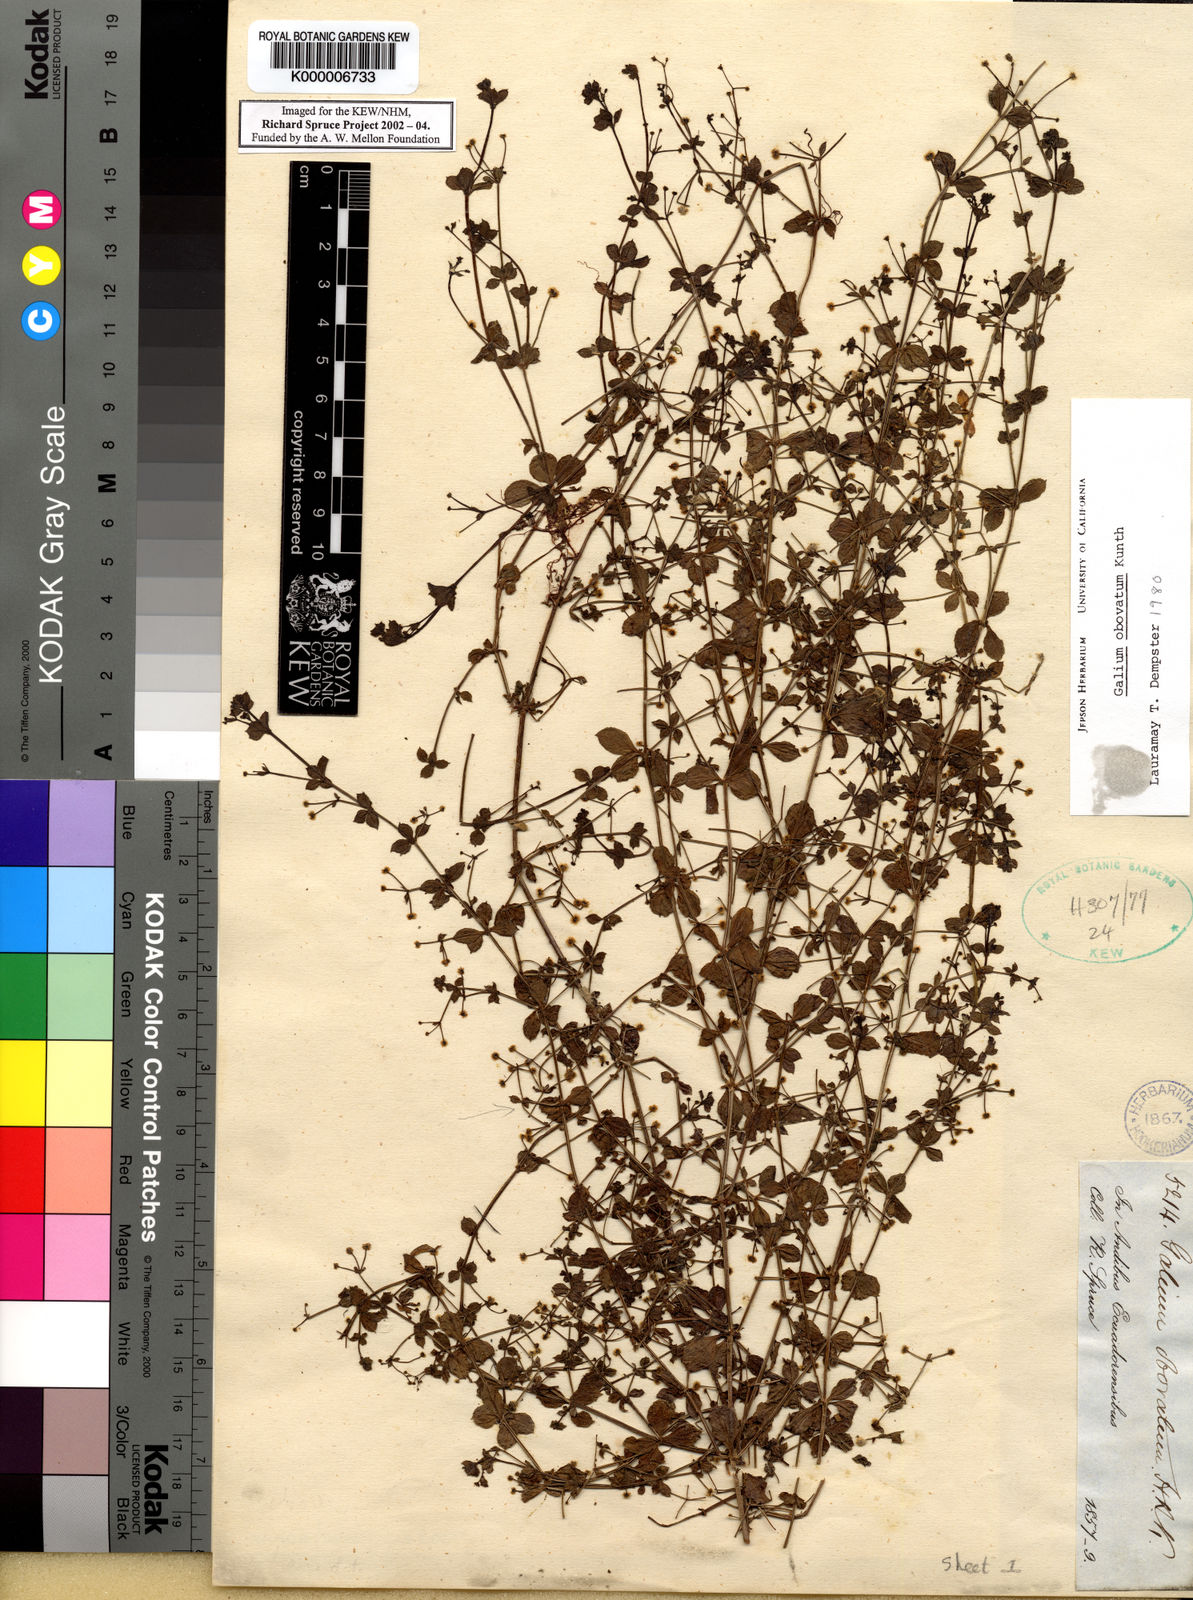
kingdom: Plantae
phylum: Tracheophyta
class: Magnoliopsida
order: Gentianales
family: Rubiaceae
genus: Galium
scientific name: Galium obovatum
